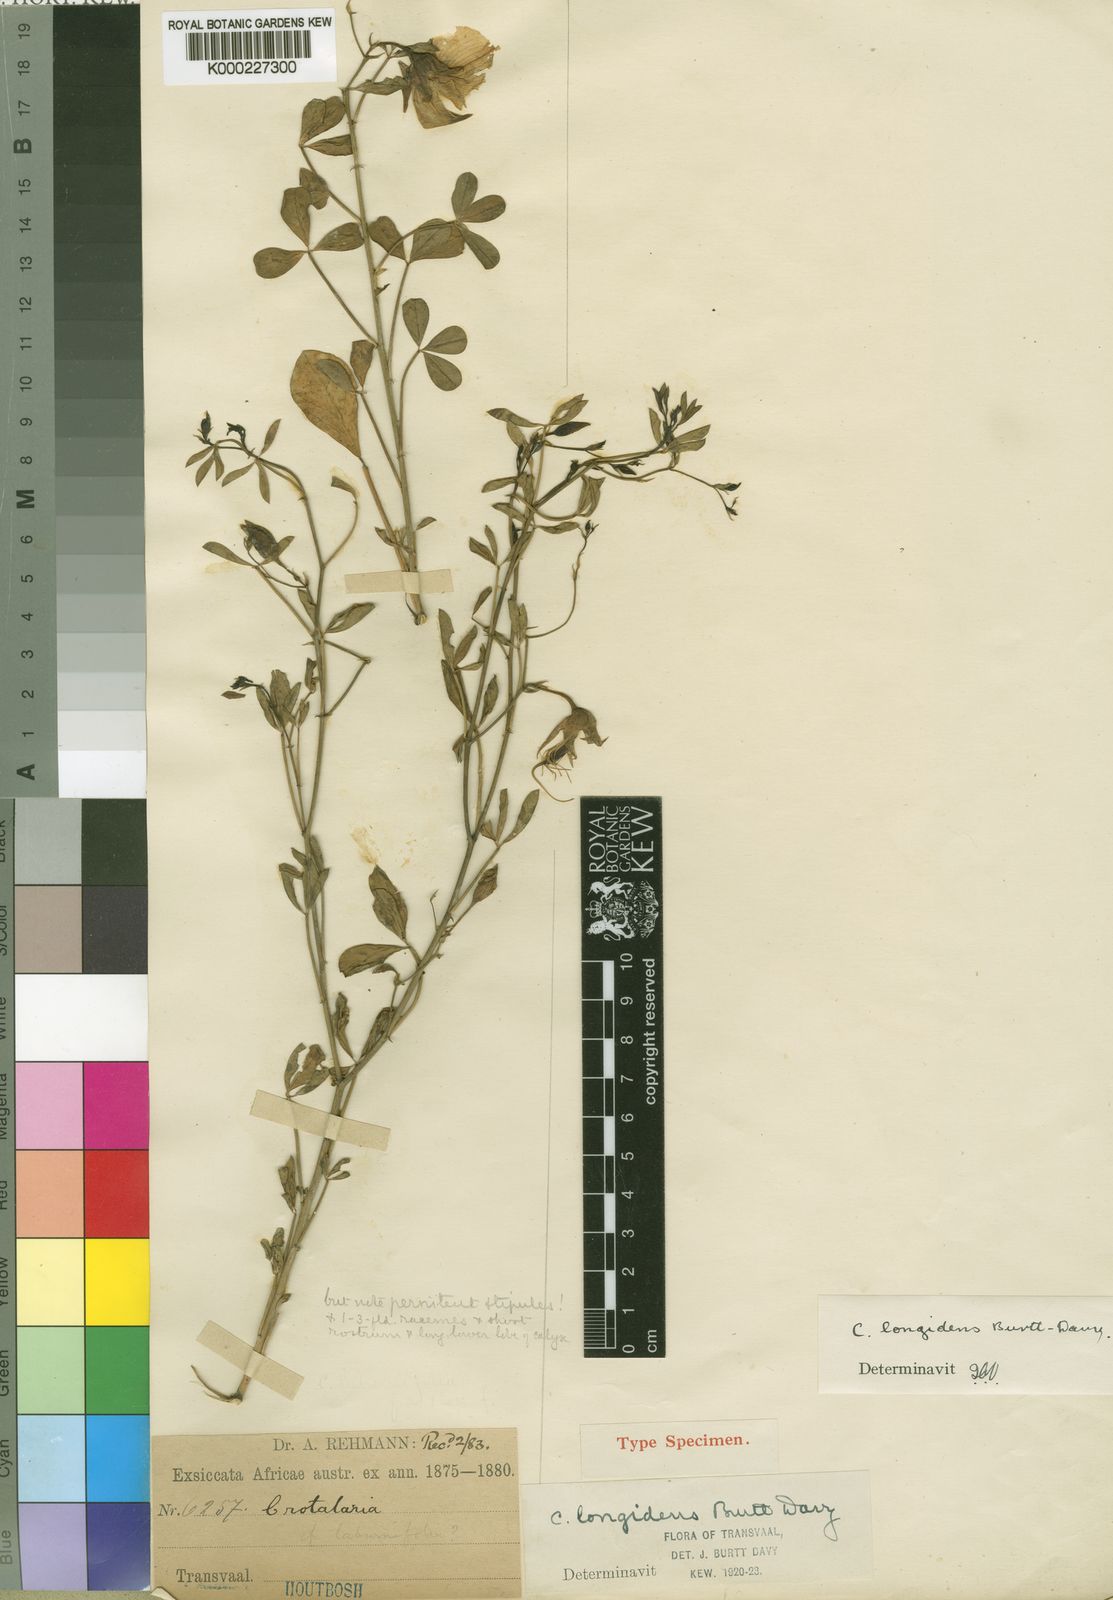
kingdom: Plantae
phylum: Tracheophyta
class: Magnoliopsida
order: Fabales
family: Fabaceae
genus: Crotalaria
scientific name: Crotalaria longidens
